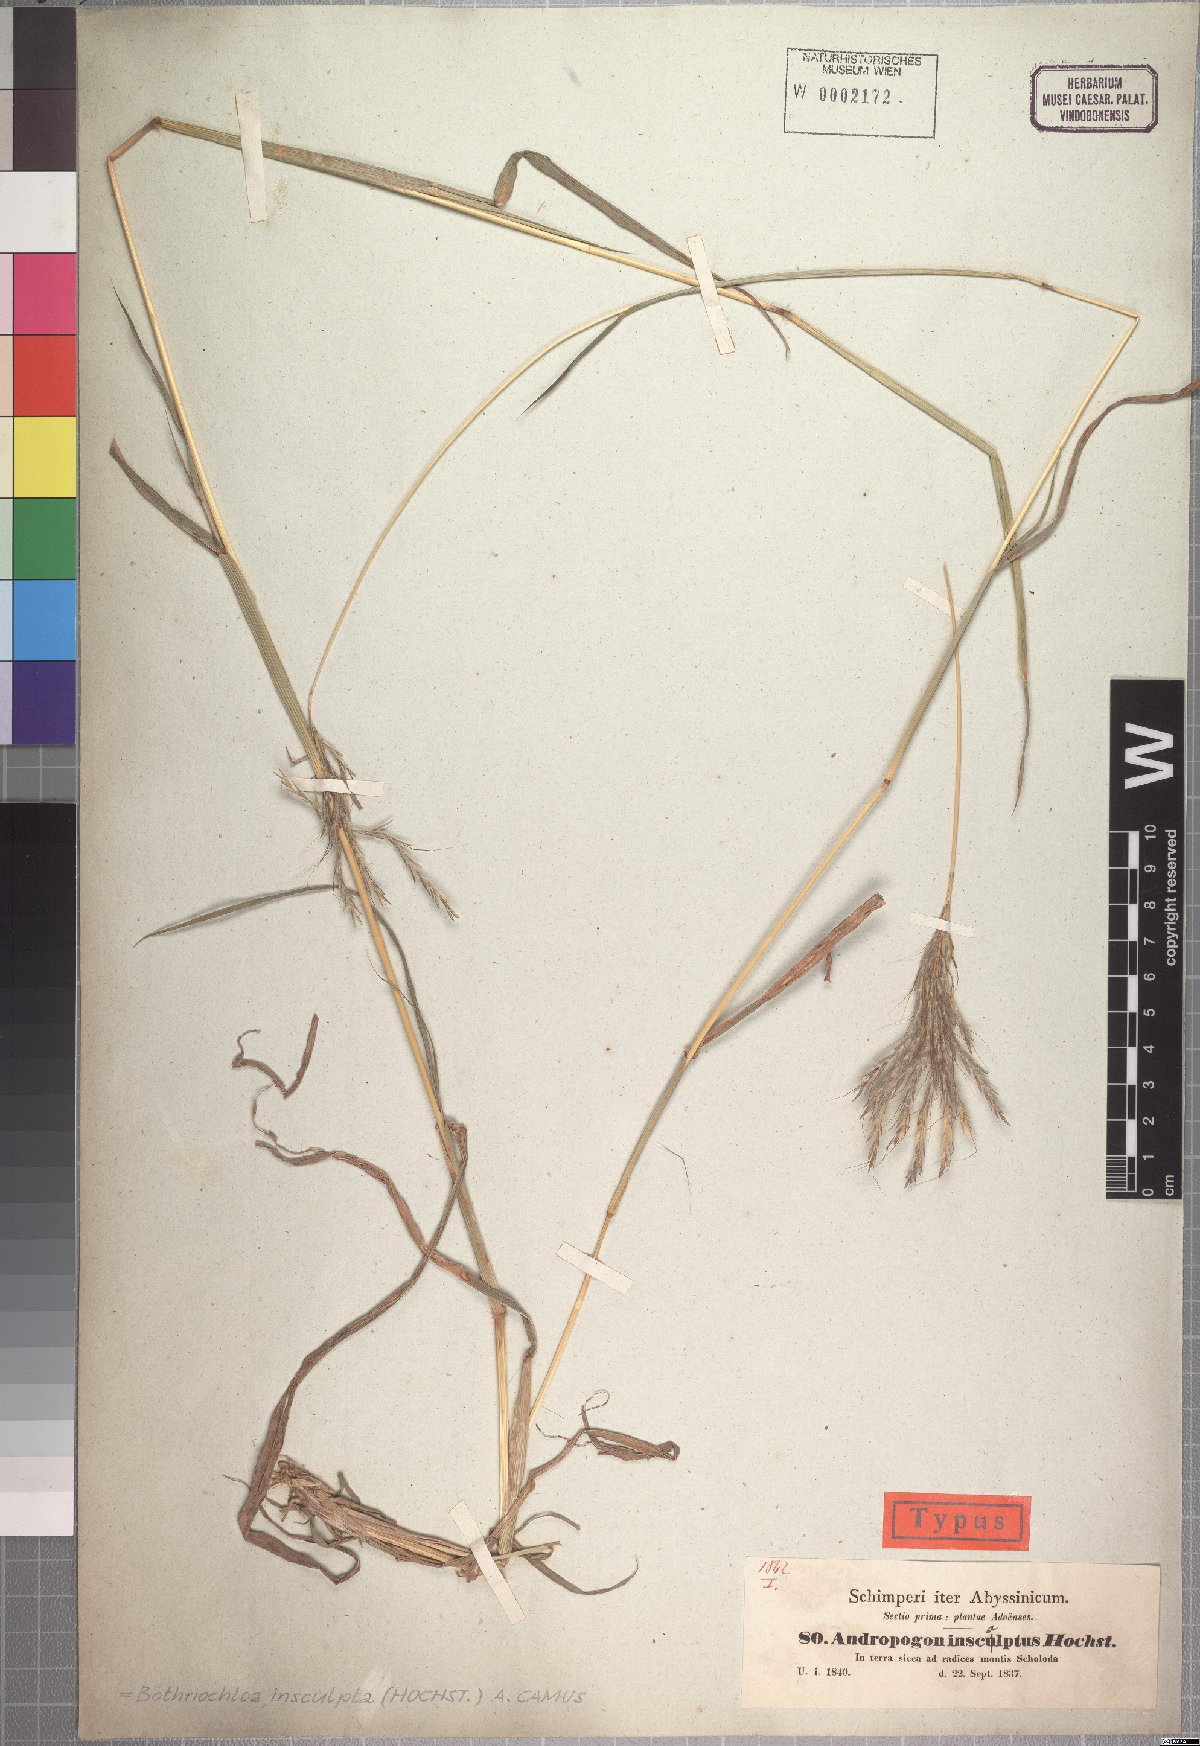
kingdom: Plantae
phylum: Tracheophyta
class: Liliopsida
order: Poales
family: Poaceae
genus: Bothriochloa
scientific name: Bothriochloa insculpta
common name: Creeping-bluegrass
